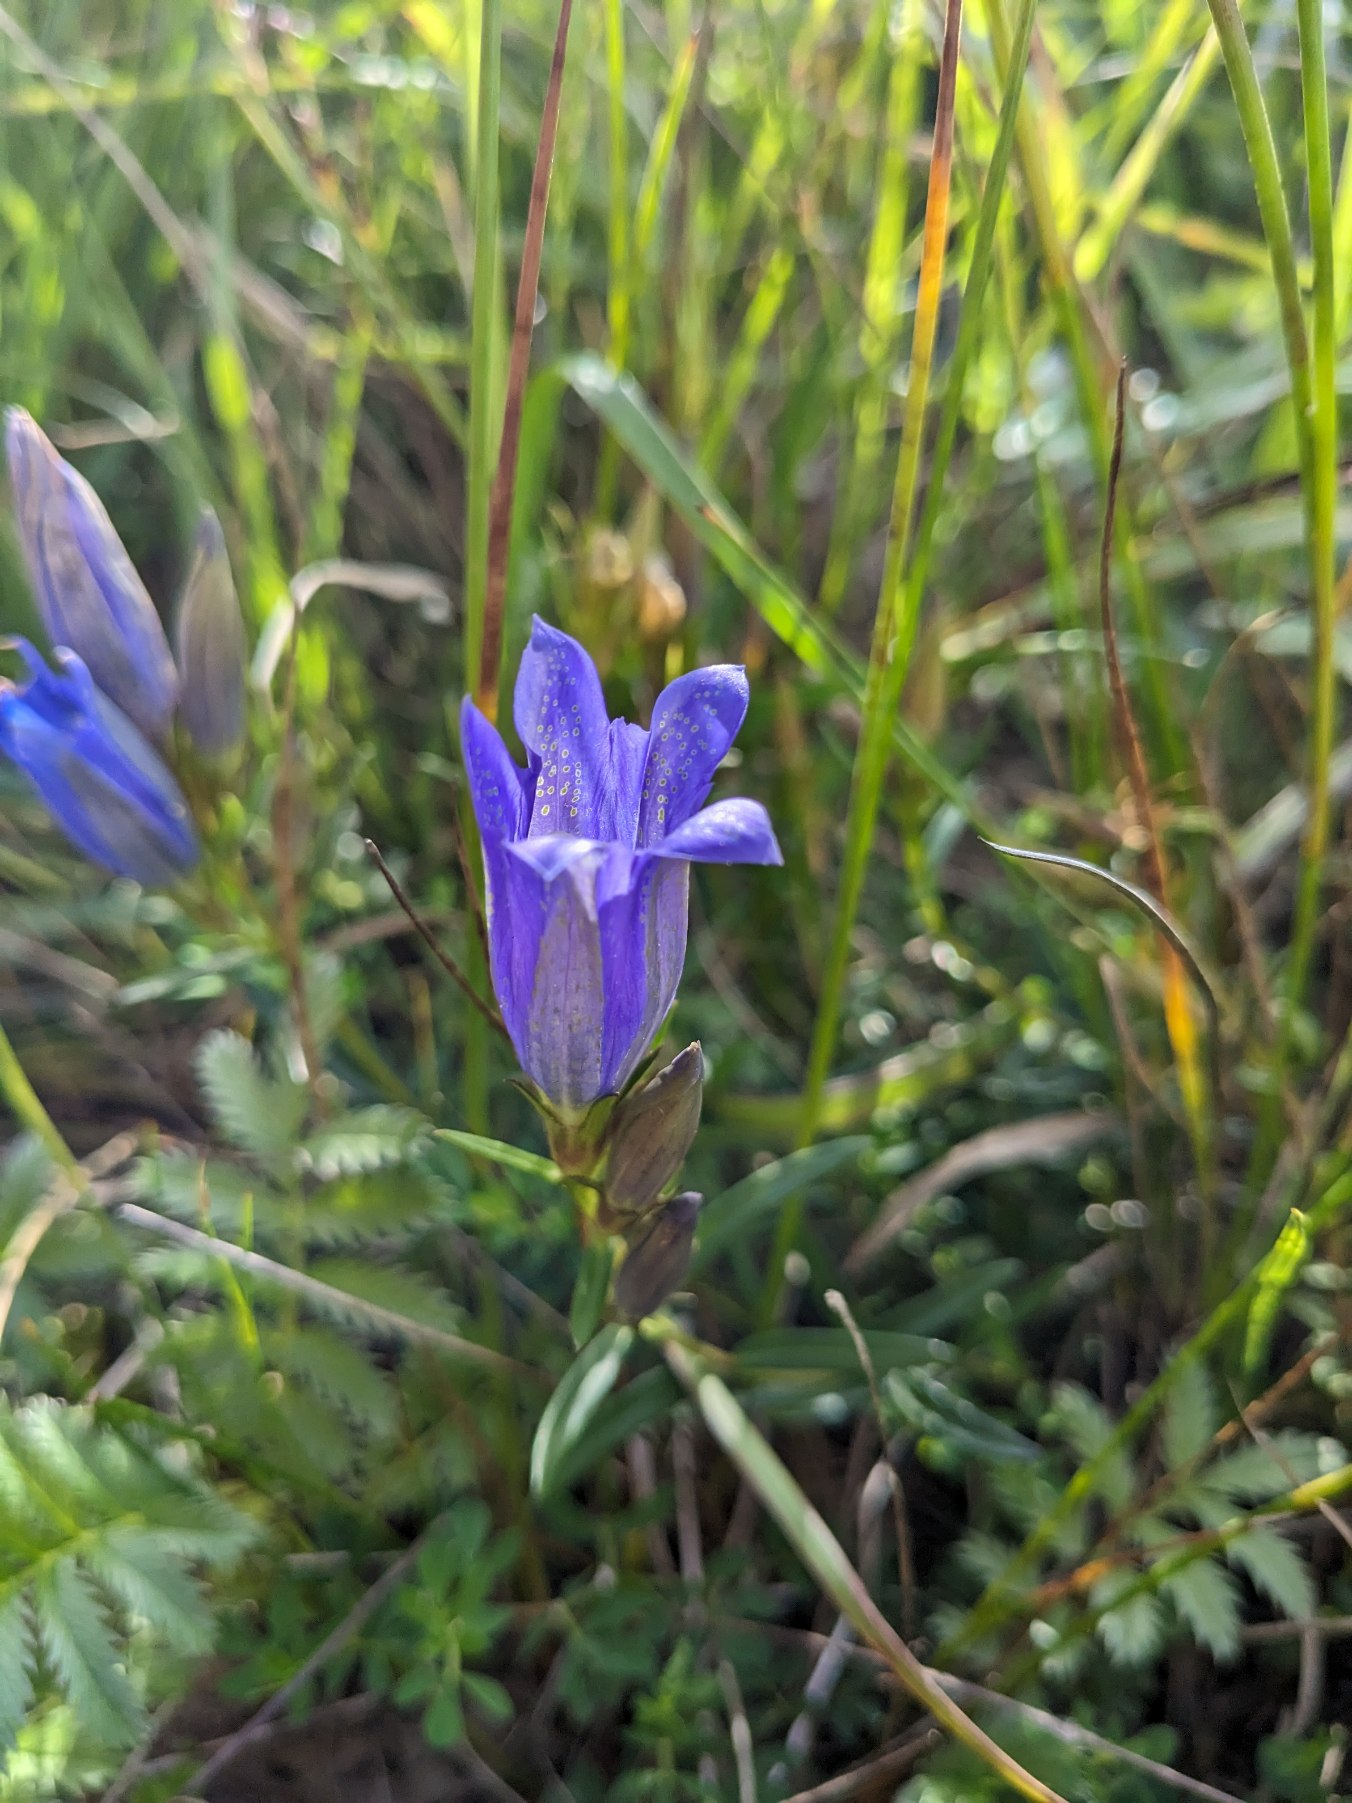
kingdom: Plantae
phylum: Tracheophyta
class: Magnoliopsida
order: Gentianales
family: Gentianaceae
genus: Gentiana
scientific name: Gentiana pneumonanthe
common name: Klokke-ensian
